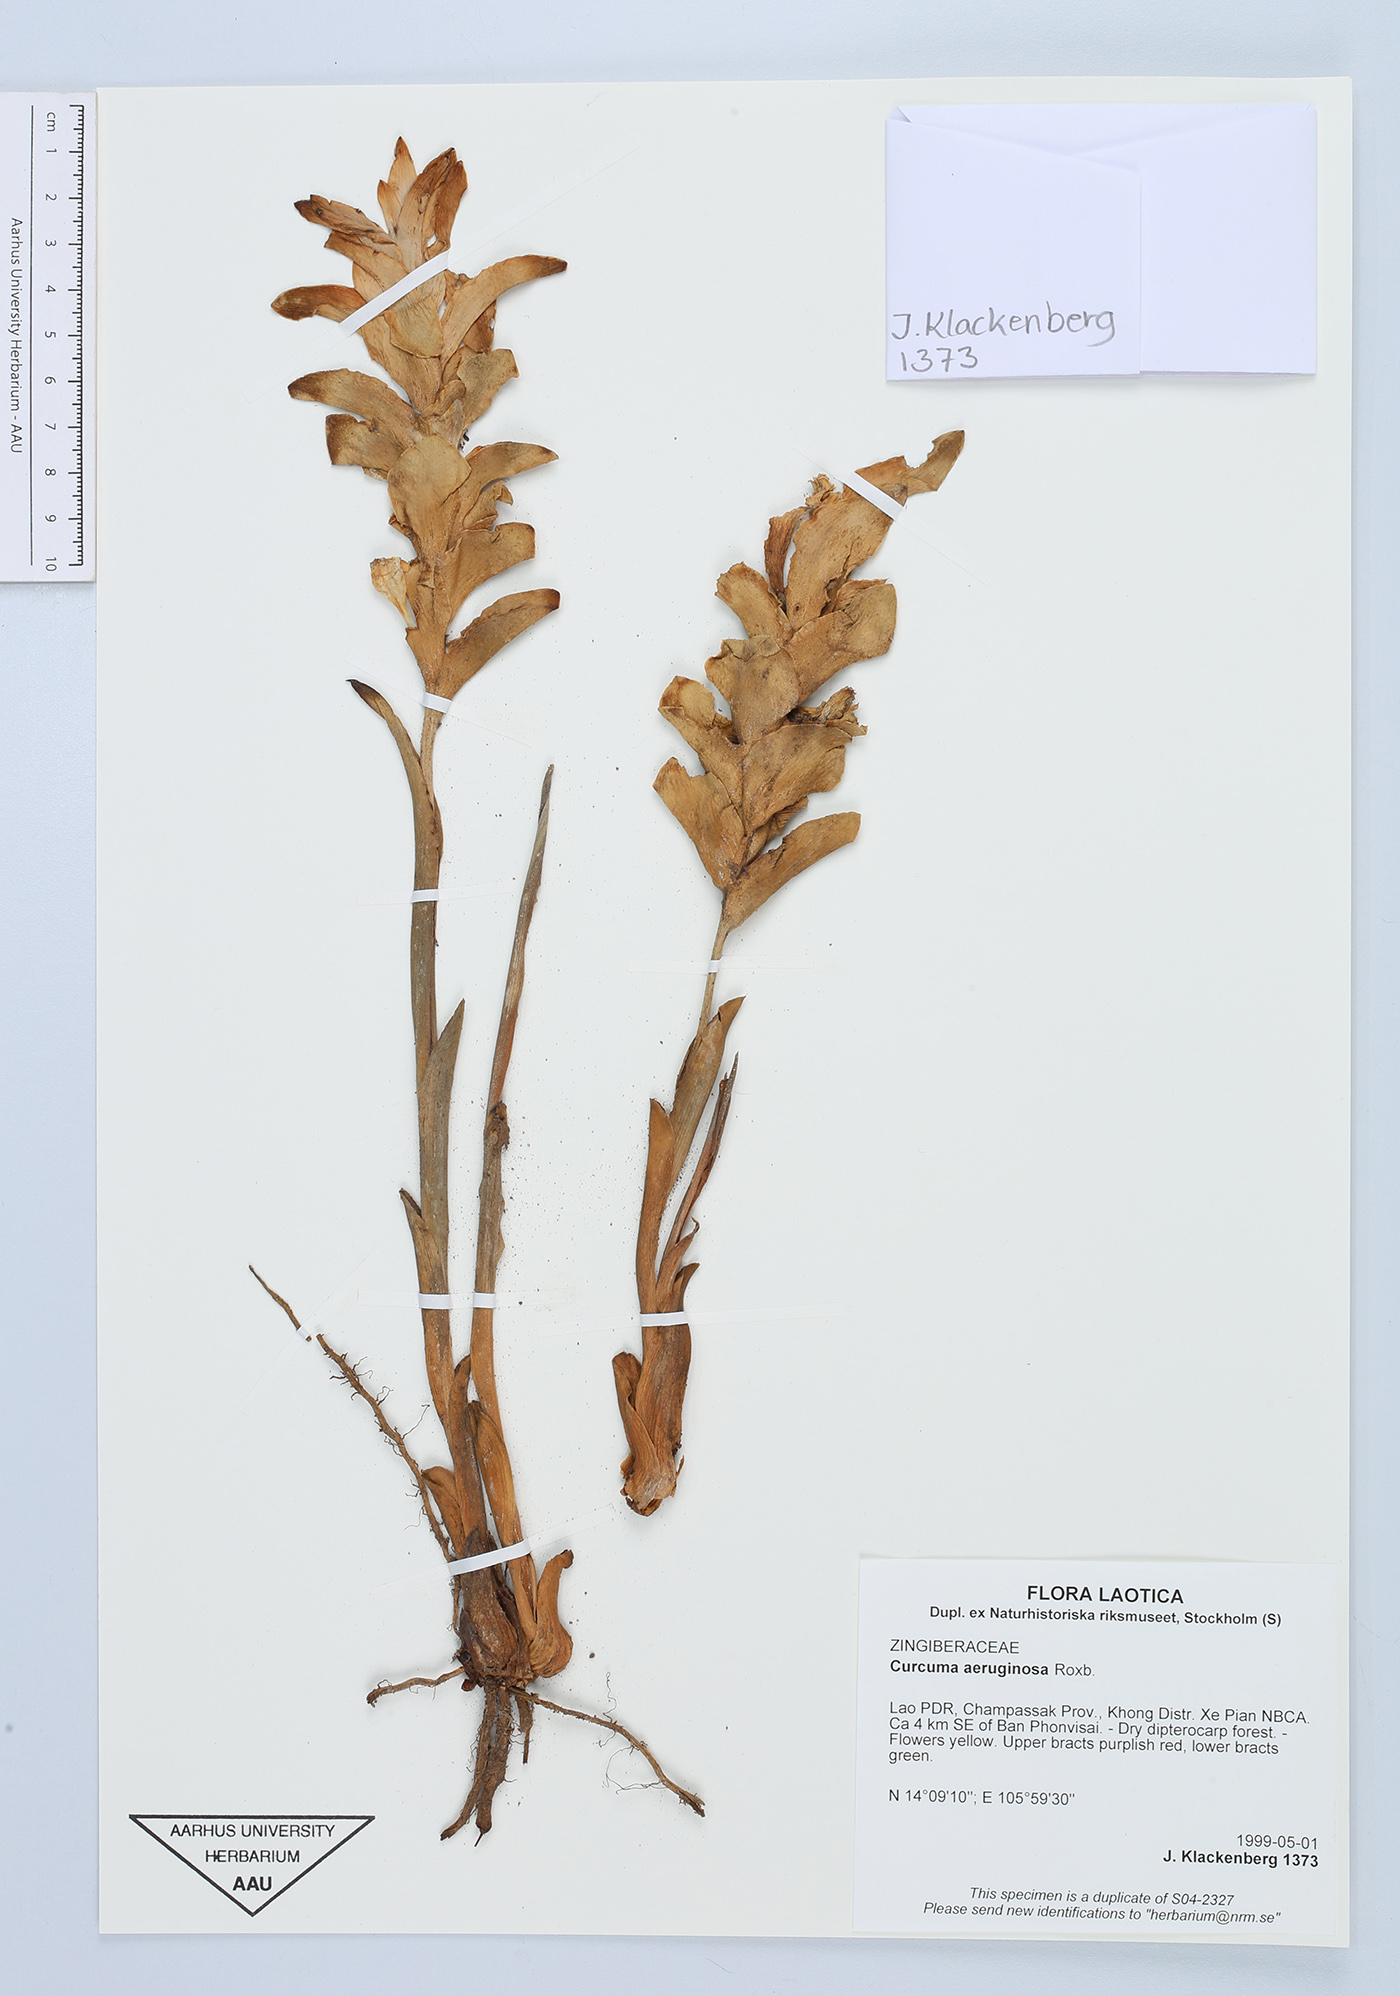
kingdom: Plantae
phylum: Tracheophyta
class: Liliopsida
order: Zingiberales
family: Zingiberaceae
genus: Curcuma
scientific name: Curcuma aeruginosa
